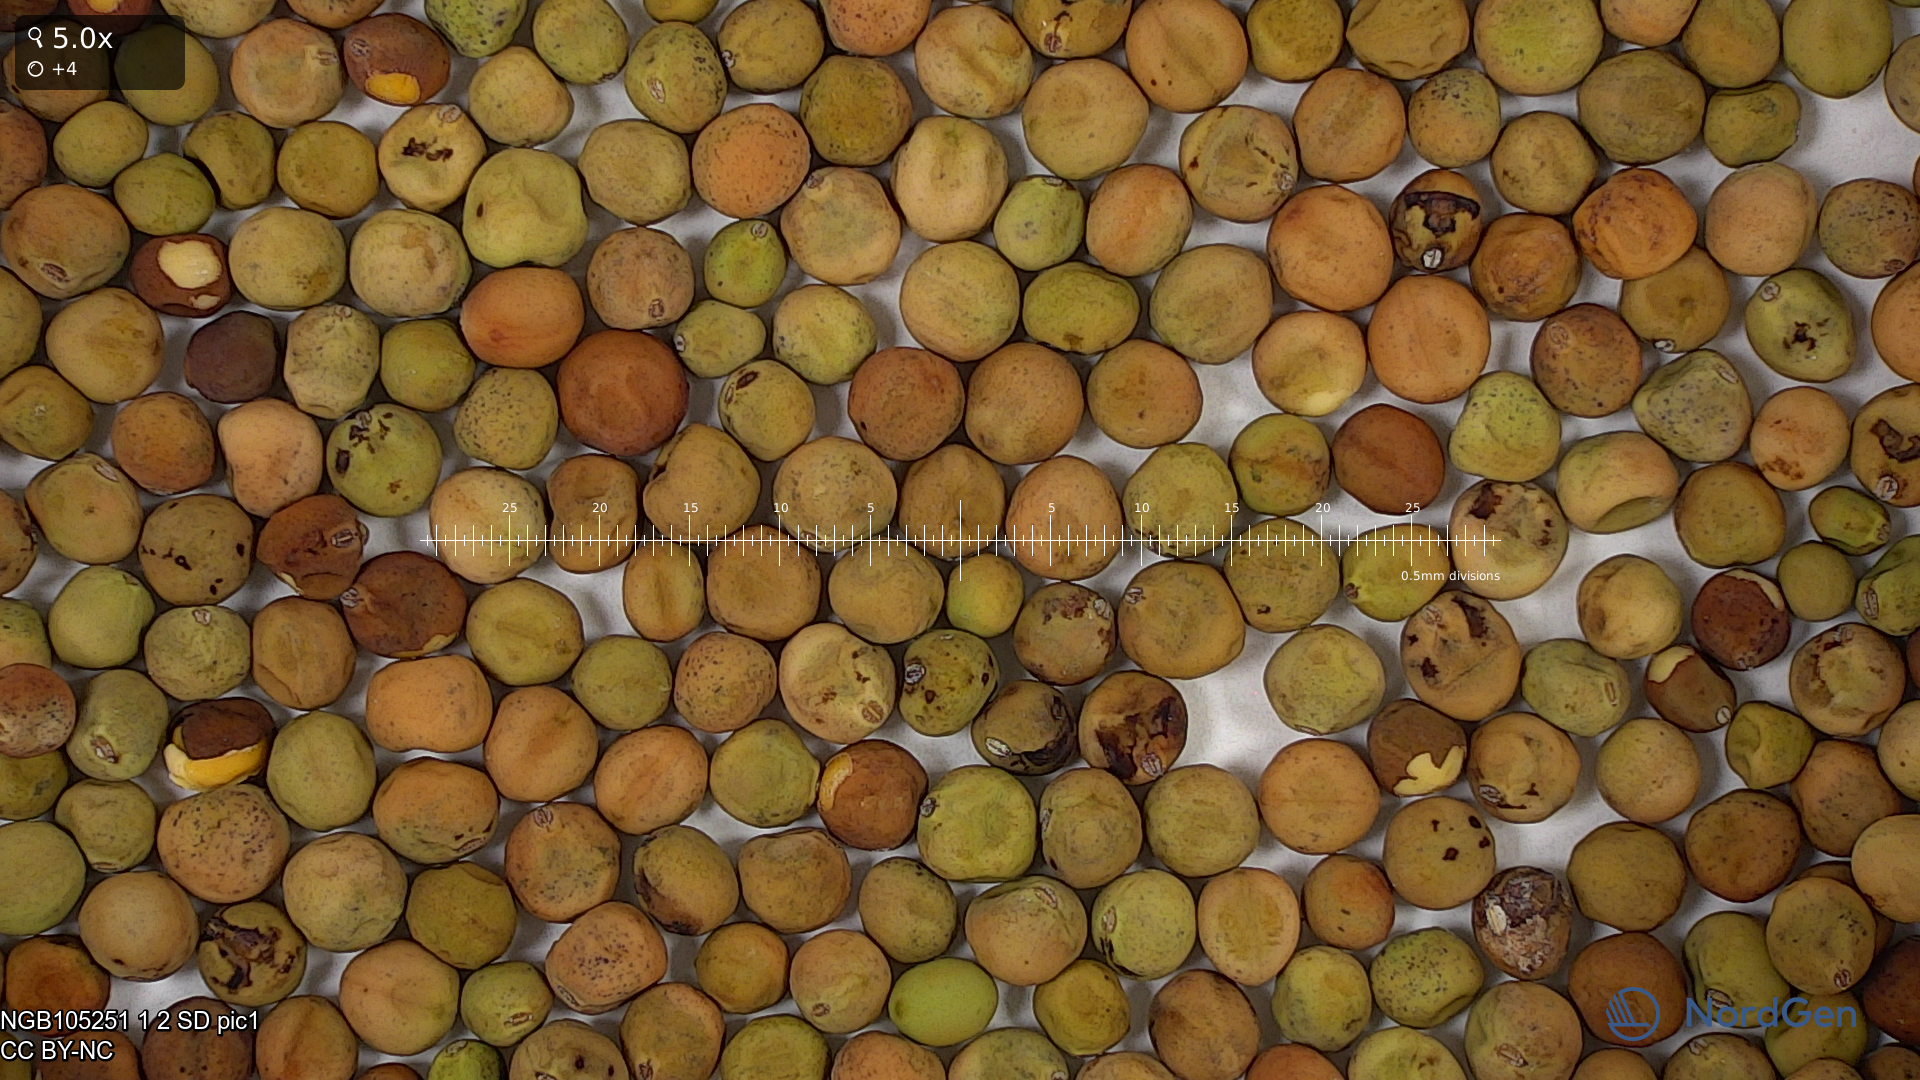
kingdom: Plantae
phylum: Tracheophyta
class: Magnoliopsida
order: Fabales
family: Fabaceae
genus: Lathyrus
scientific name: Lathyrus oleraceus
